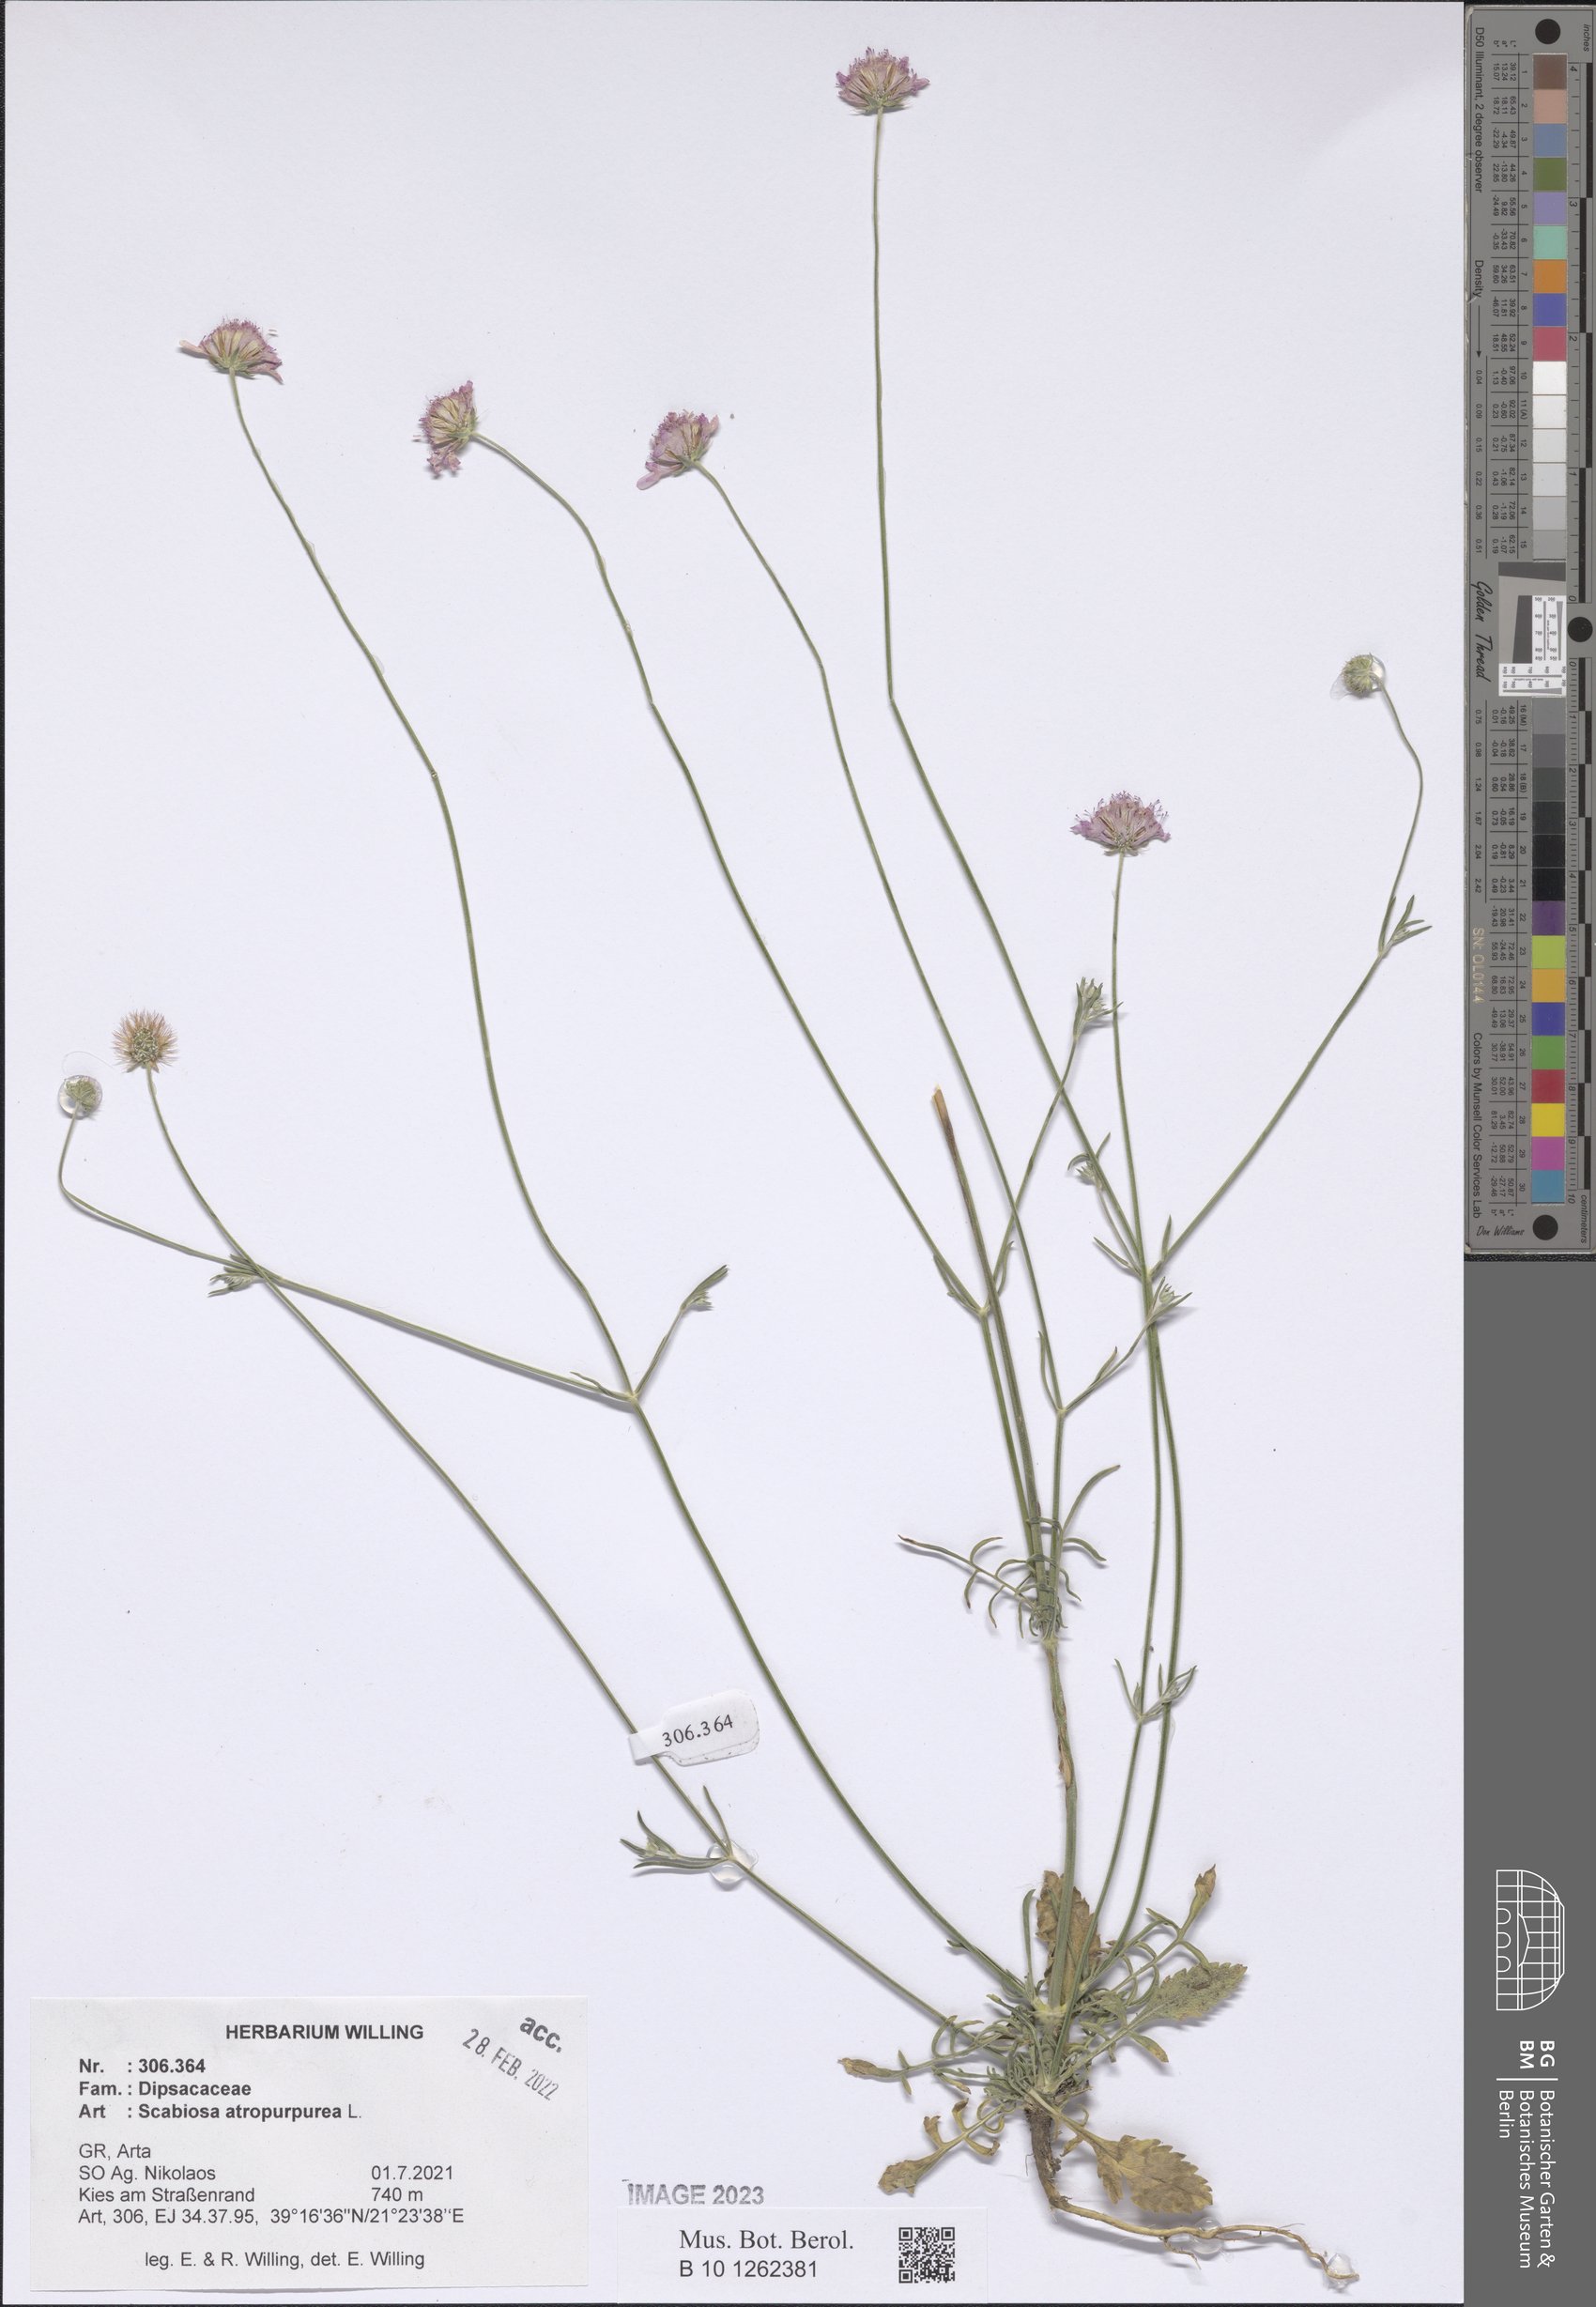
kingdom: Plantae
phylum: Tracheophyta
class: Magnoliopsida
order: Dipsacales
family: Caprifoliaceae
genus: Sixalix
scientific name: Sixalix atropurpurea
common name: Sweet scabious
